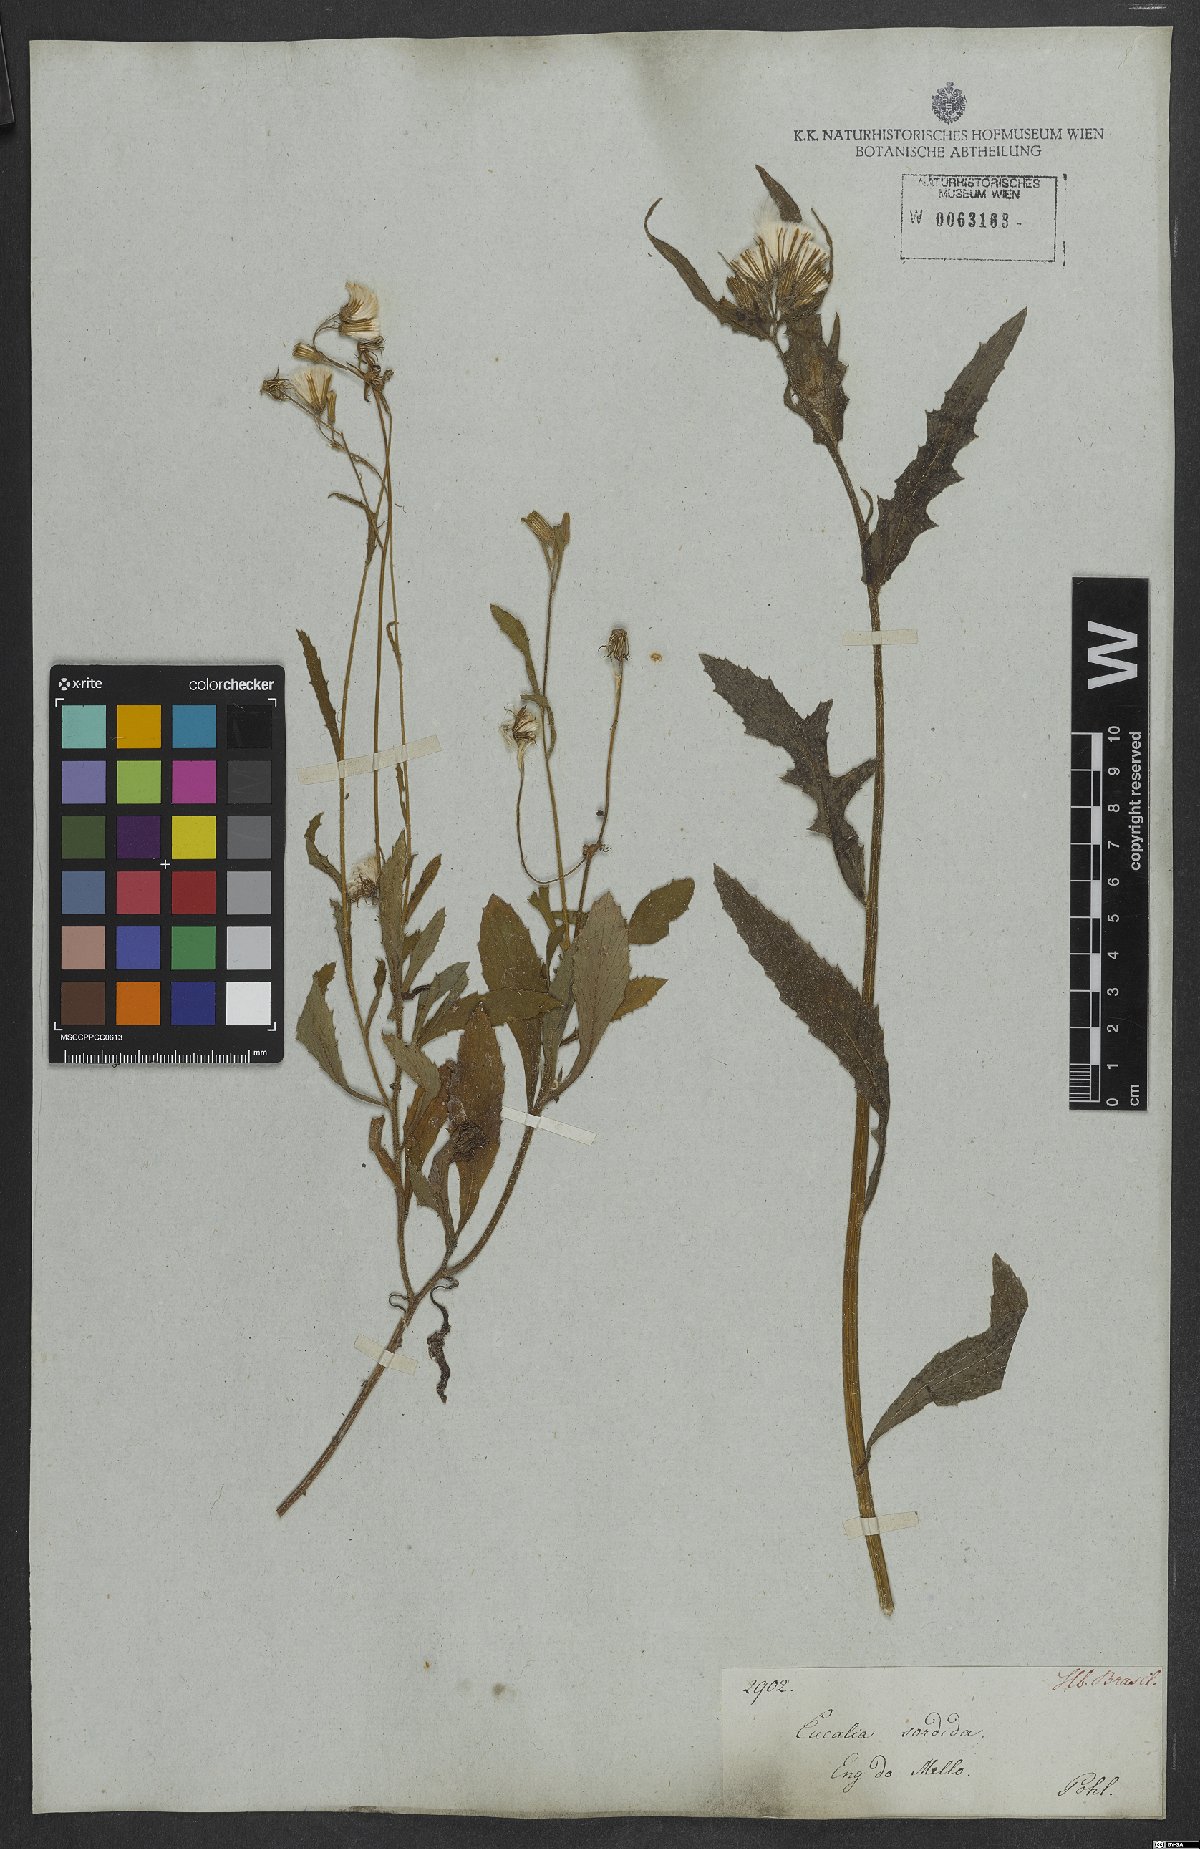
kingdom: Plantae
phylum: Tracheophyta
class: Magnoliopsida
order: Asterales
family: Asteraceae
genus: Erechtites
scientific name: Erechtites hieraciifolius
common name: American burnweed
